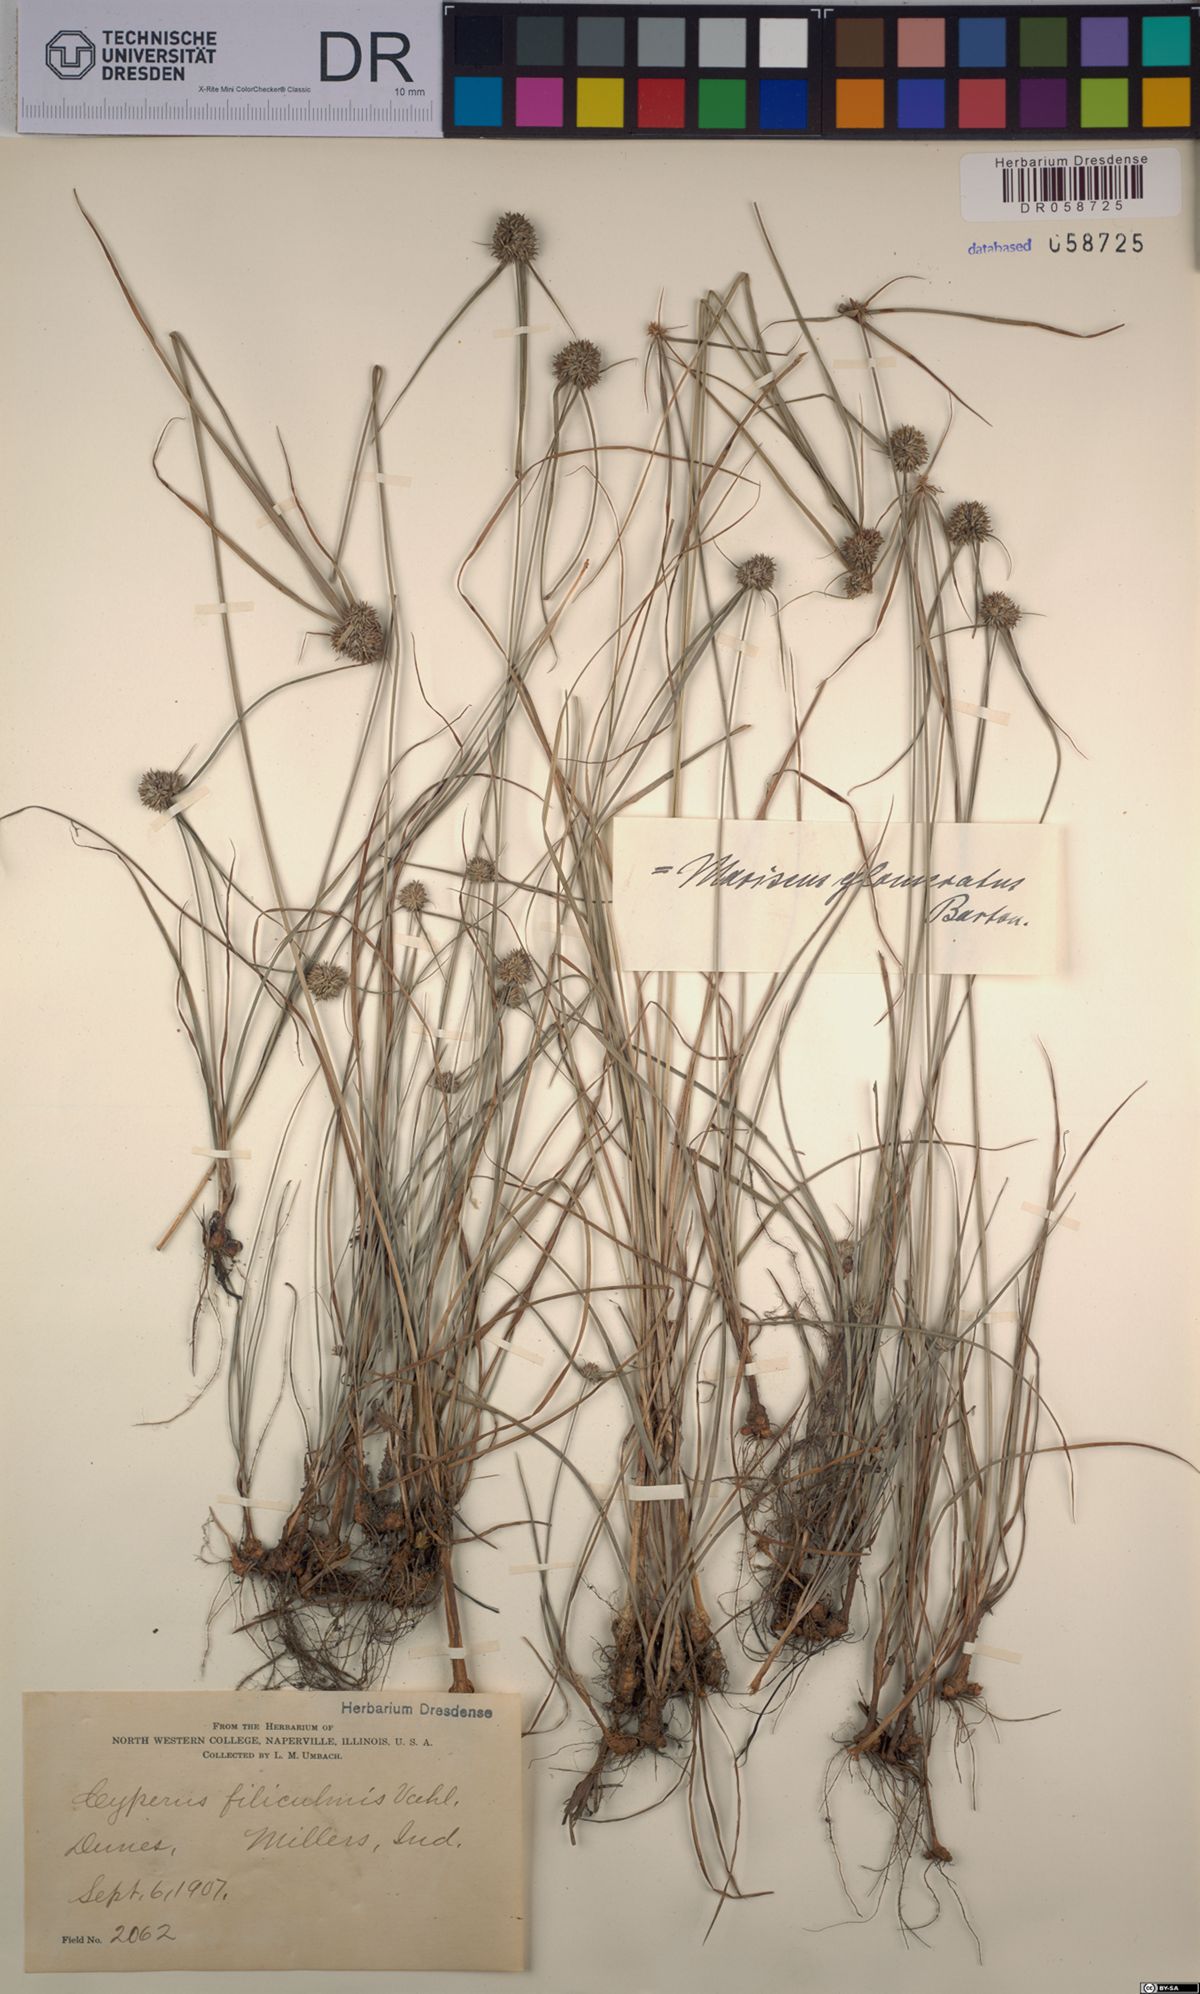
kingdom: Plantae
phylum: Tracheophyta
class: Liliopsida
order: Poales
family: Cyperaceae
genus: Cyperus
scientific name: Cyperus filiculmis
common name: Slender sand sedge
